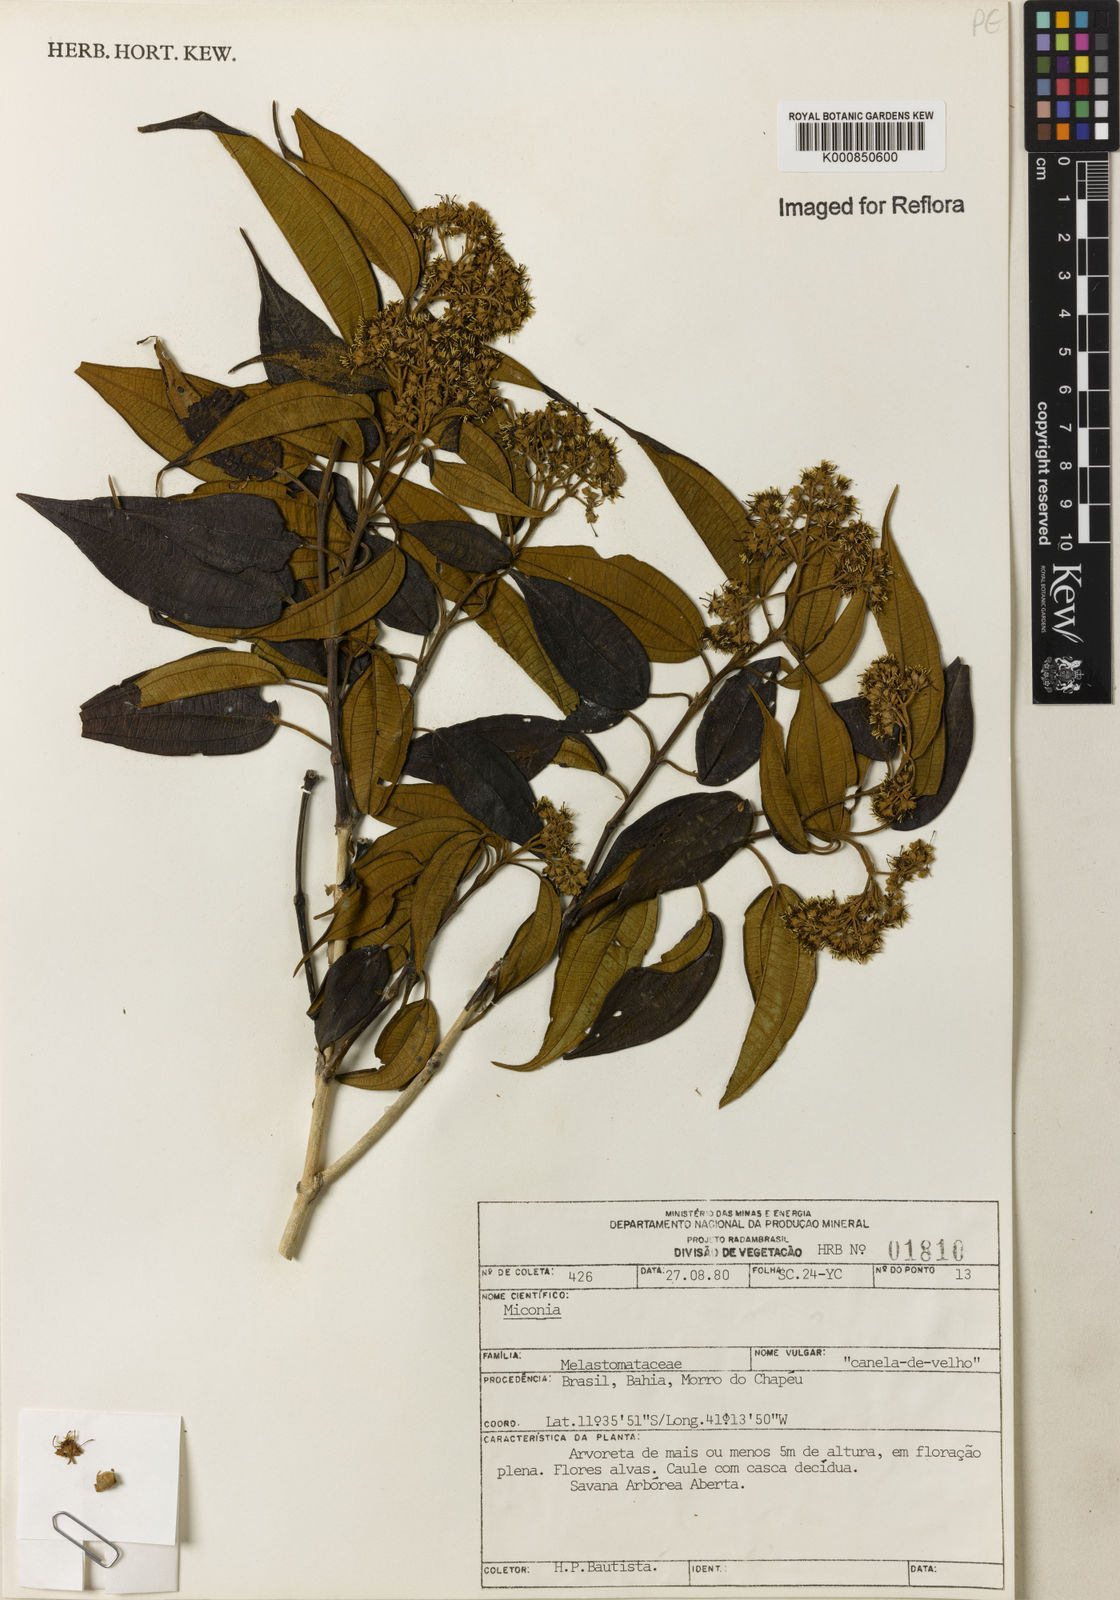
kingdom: Plantae
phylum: Tracheophyta
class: Magnoliopsida
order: Myrtales
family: Melastomataceae
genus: Miconia
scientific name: Miconia caudigera
